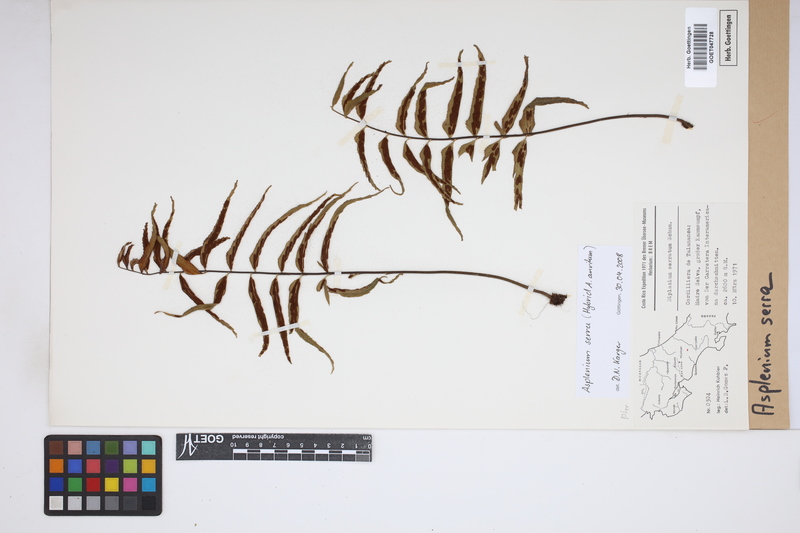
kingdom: Plantae
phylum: Tracheophyta
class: Polypodiopsida
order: Polypodiales
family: Aspleniaceae
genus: Asplenium
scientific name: Asplenium serra
